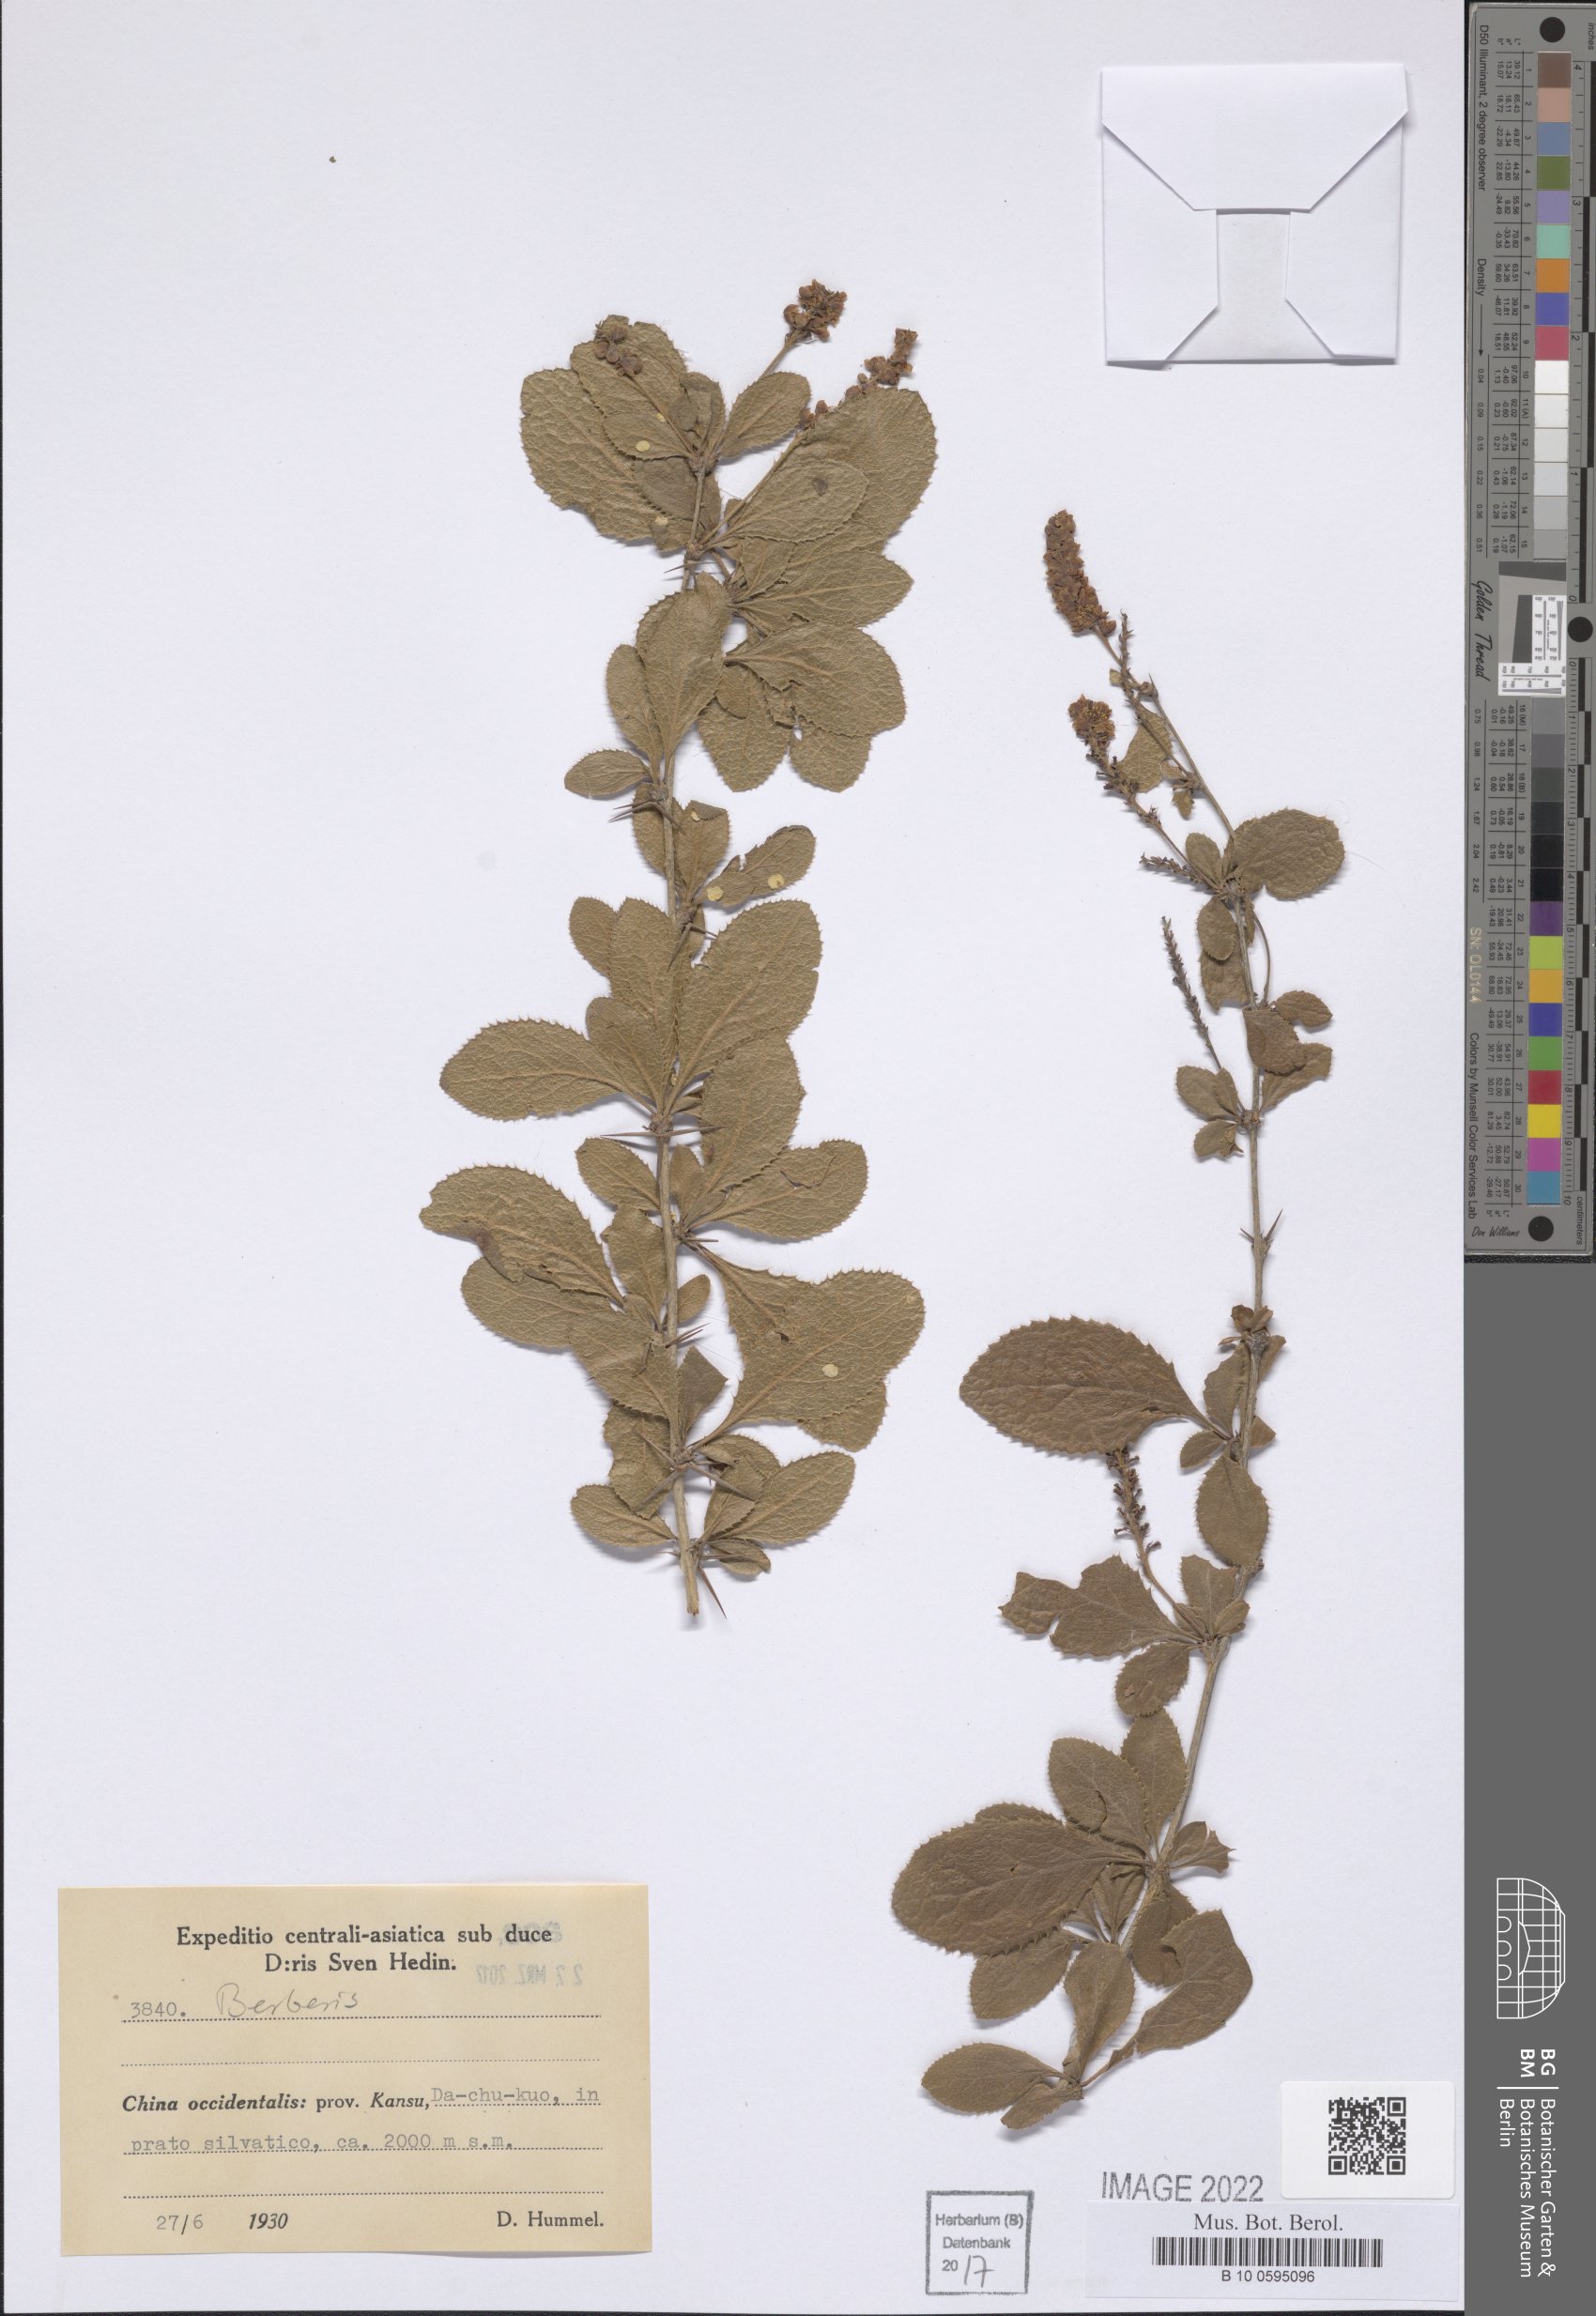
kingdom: Plantae
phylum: Tracheophyta
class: Magnoliopsida
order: Ranunculales
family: Berberidaceae
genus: Berberis
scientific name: Berberis
